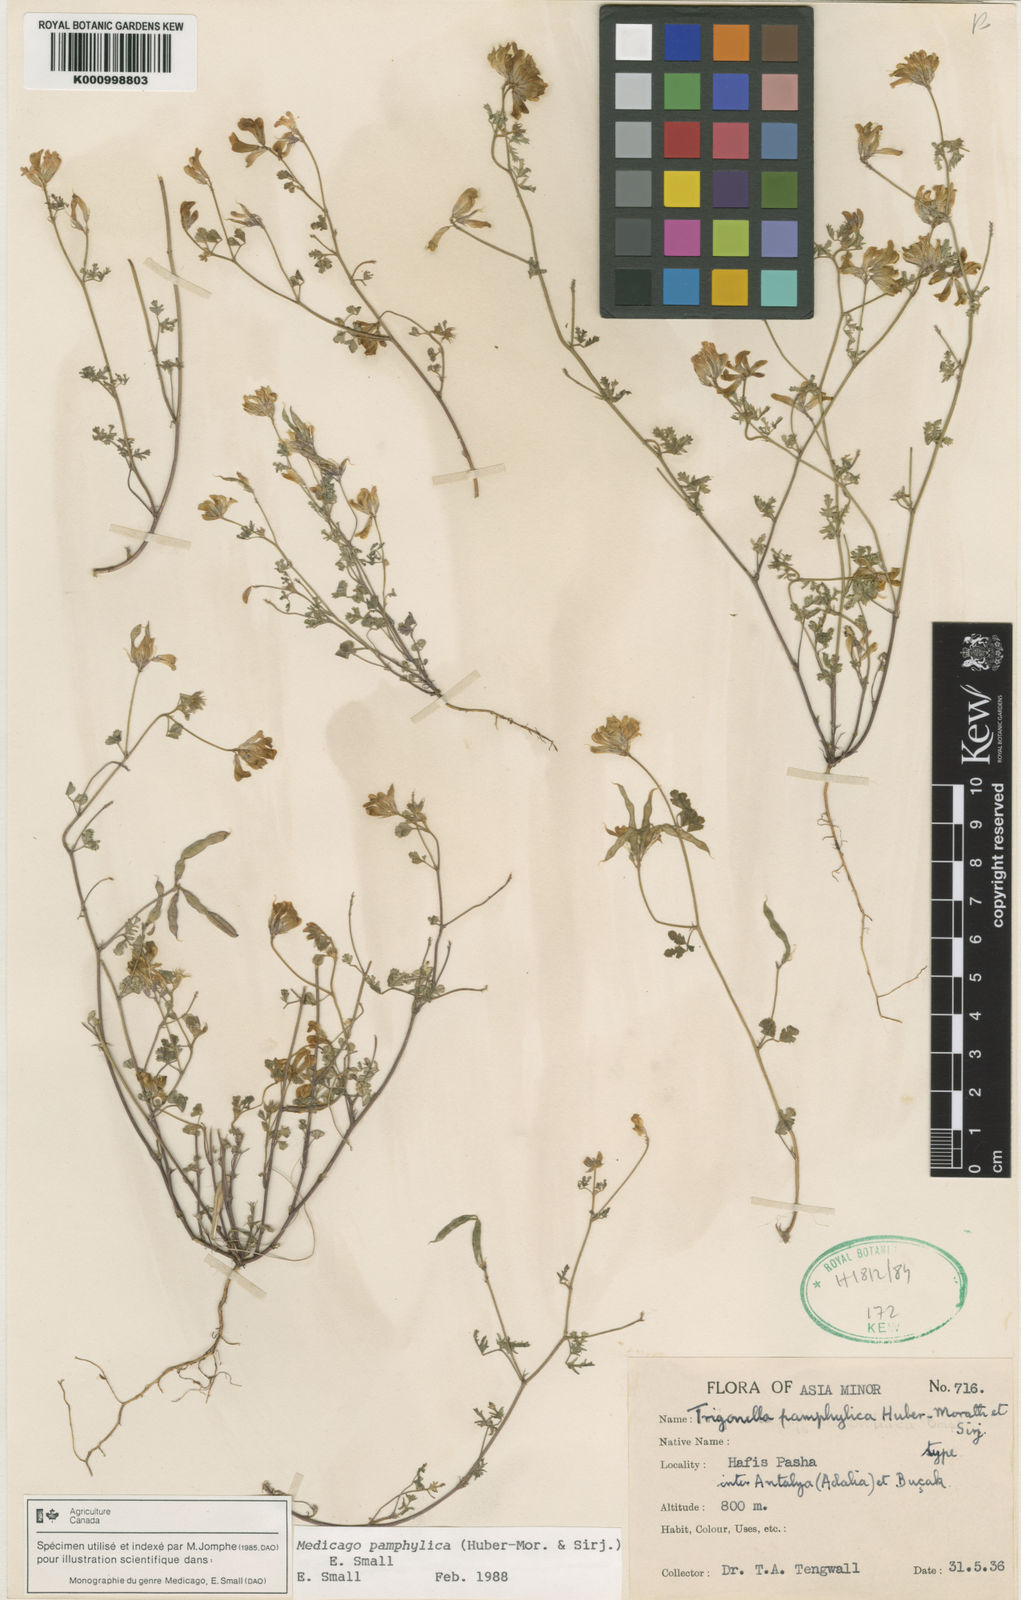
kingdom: Plantae
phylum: Tracheophyta
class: Magnoliopsida
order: Fabales
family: Fabaceae
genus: Medicago
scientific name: Medicago
